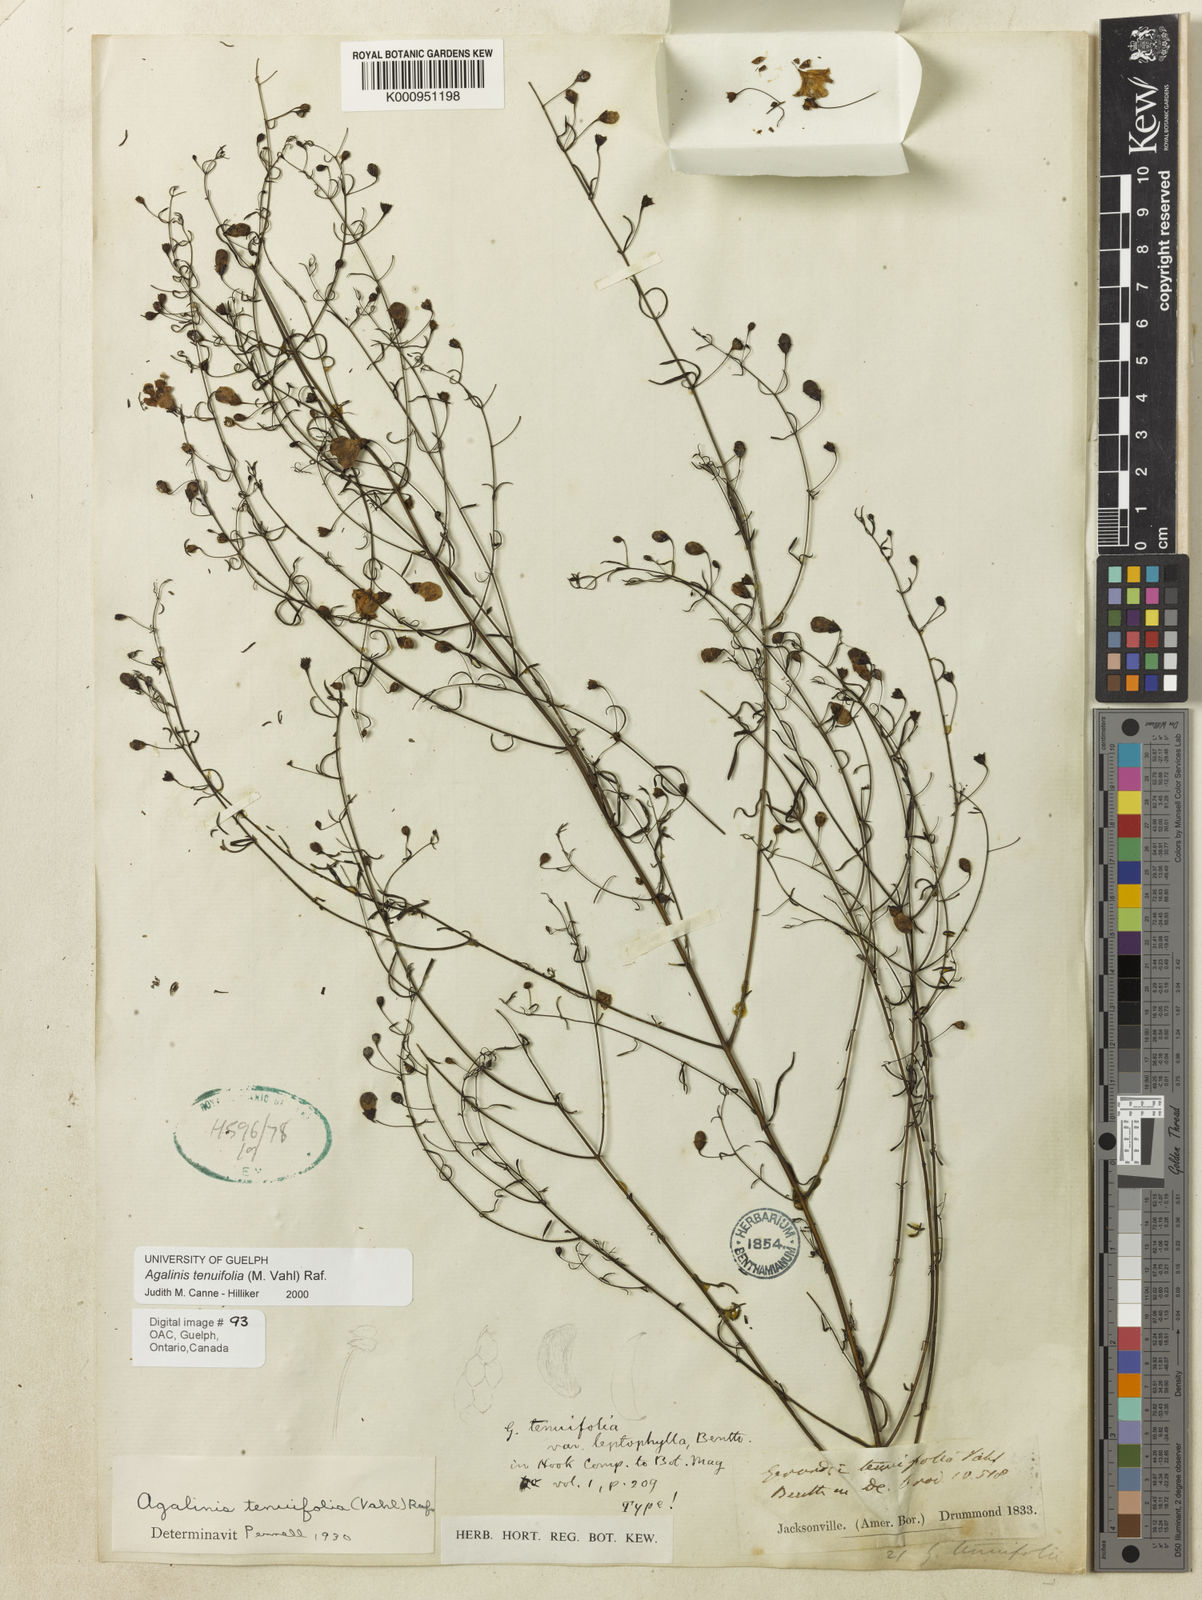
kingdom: Plantae
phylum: Tracheophyta
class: Magnoliopsida
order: Lamiales
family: Orobanchaceae
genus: Agalinis
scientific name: Agalinis tenuifolia
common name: Slender agalinis
